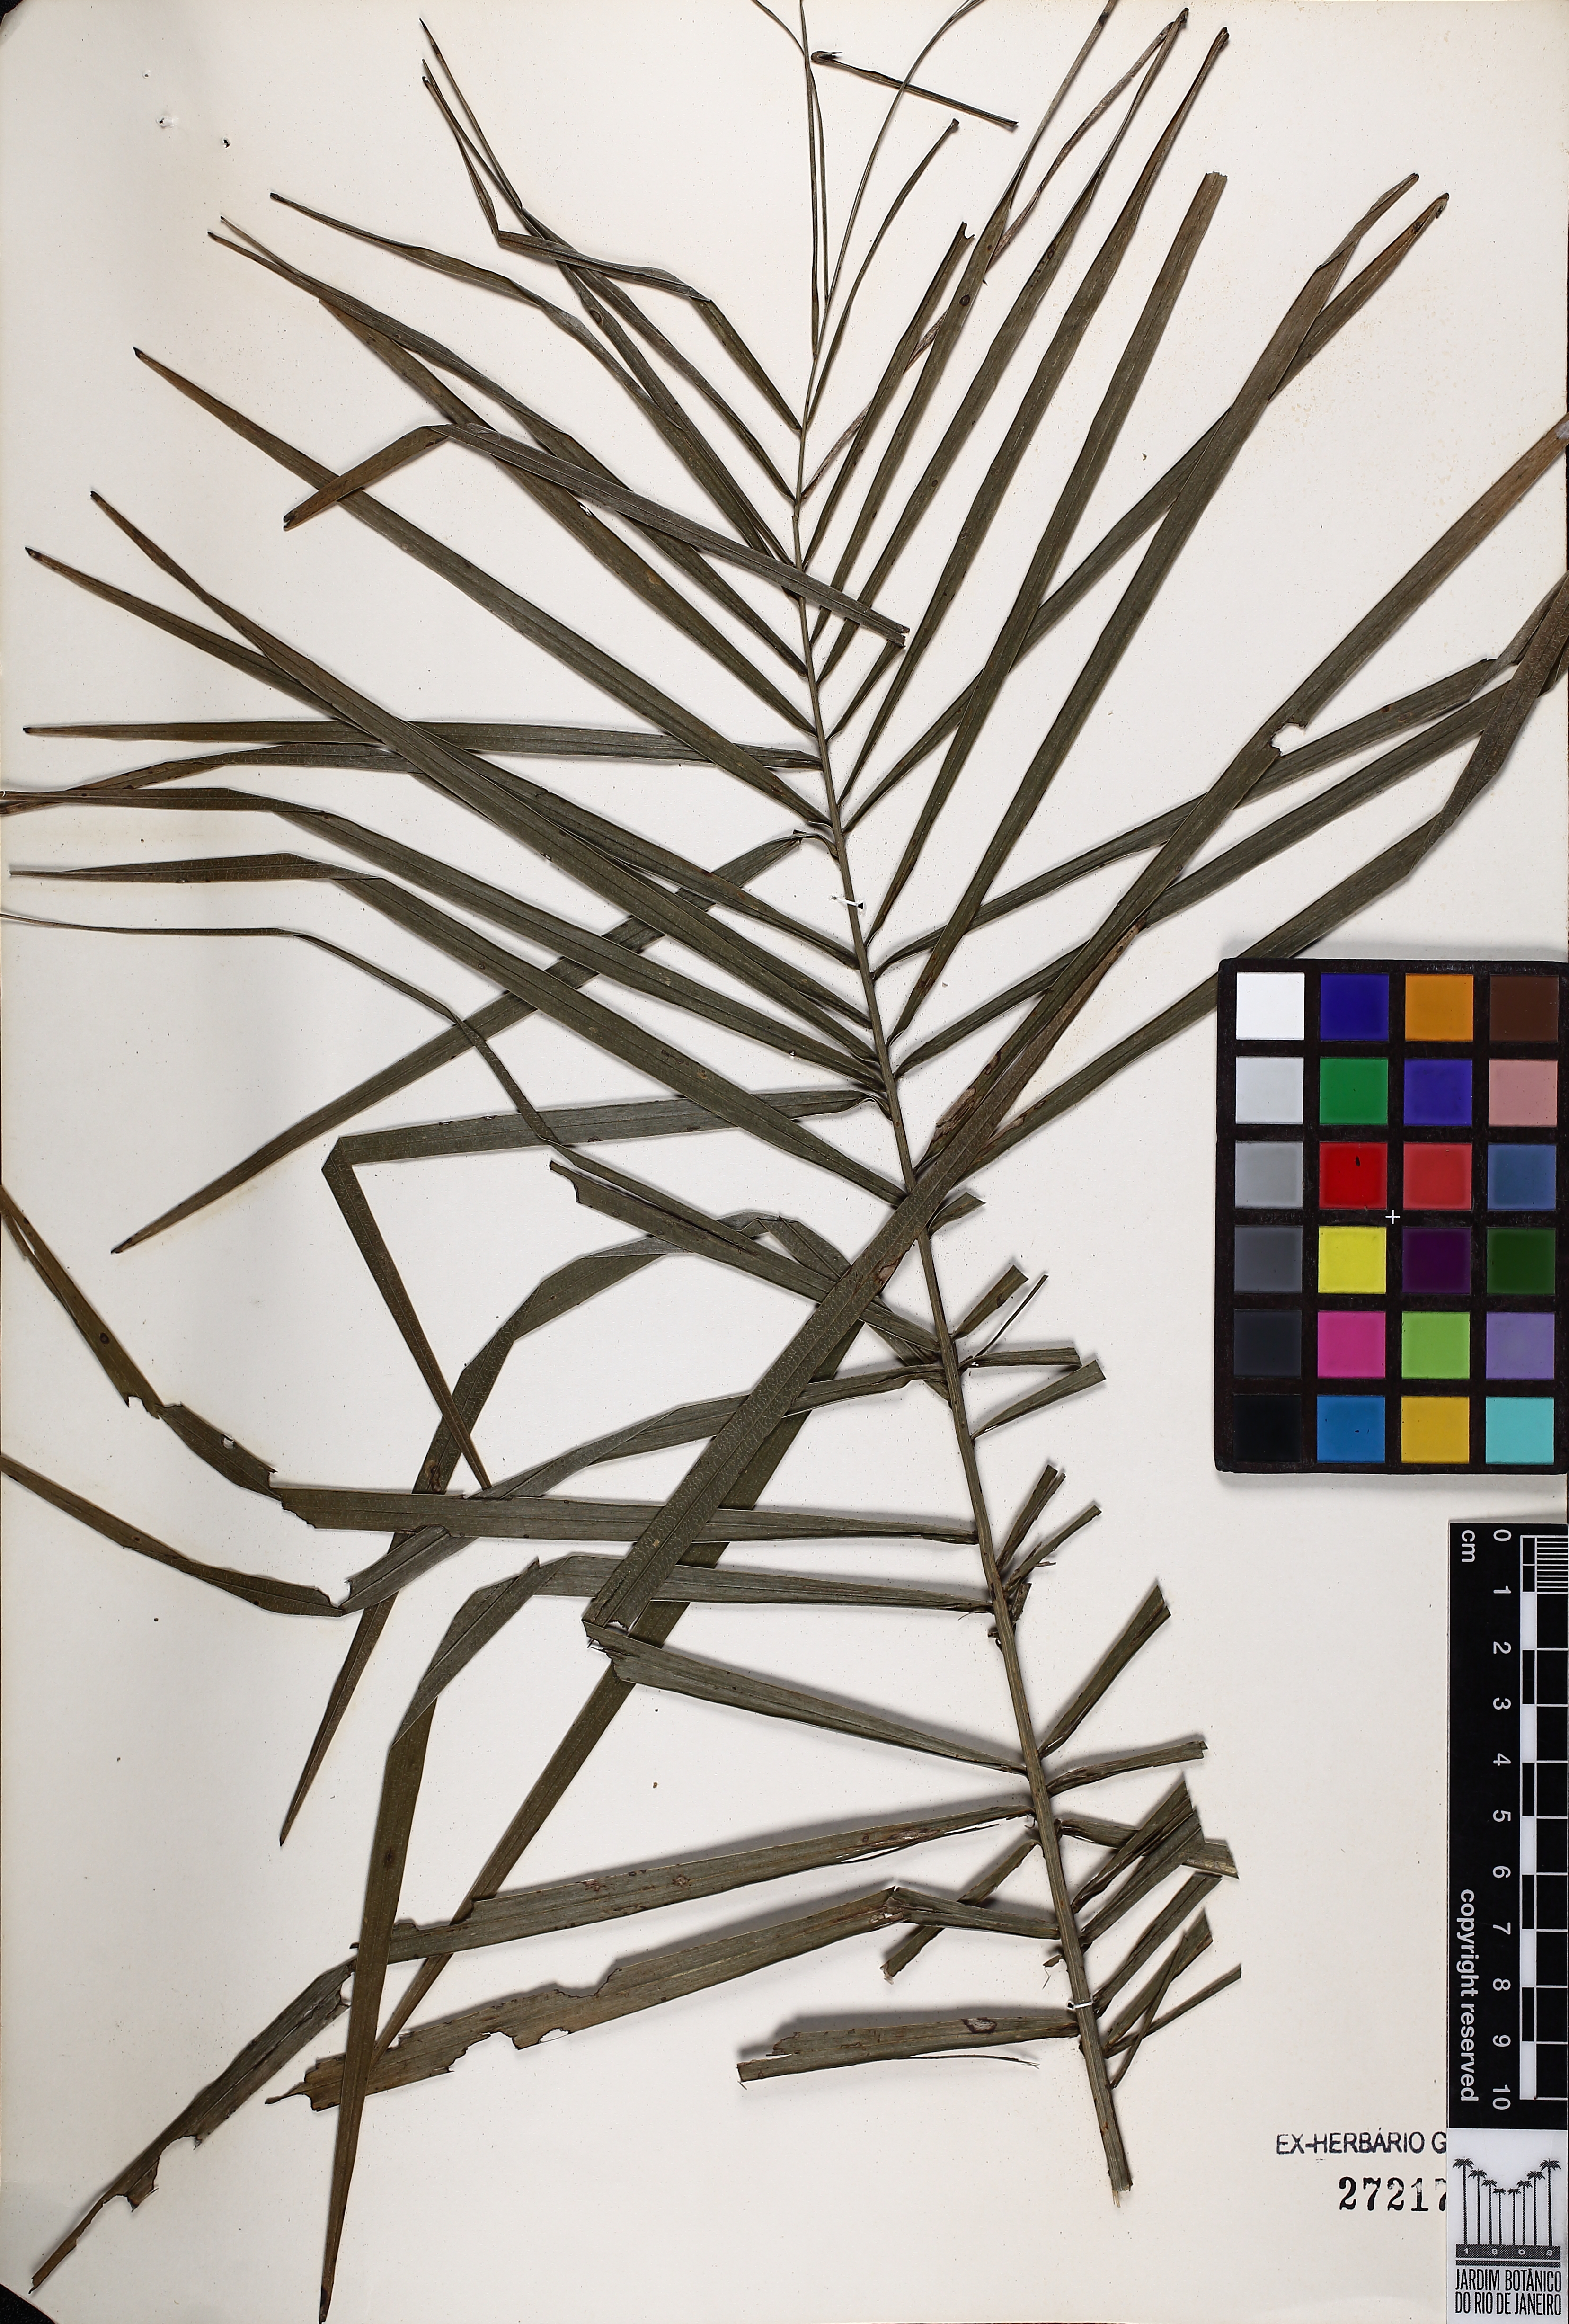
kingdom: Plantae
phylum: Tracheophyta
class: Liliopsida
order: Arecales
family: Arecaceae
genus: Syagrus
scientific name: Syagrus romanzoffiana
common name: Queen palm
